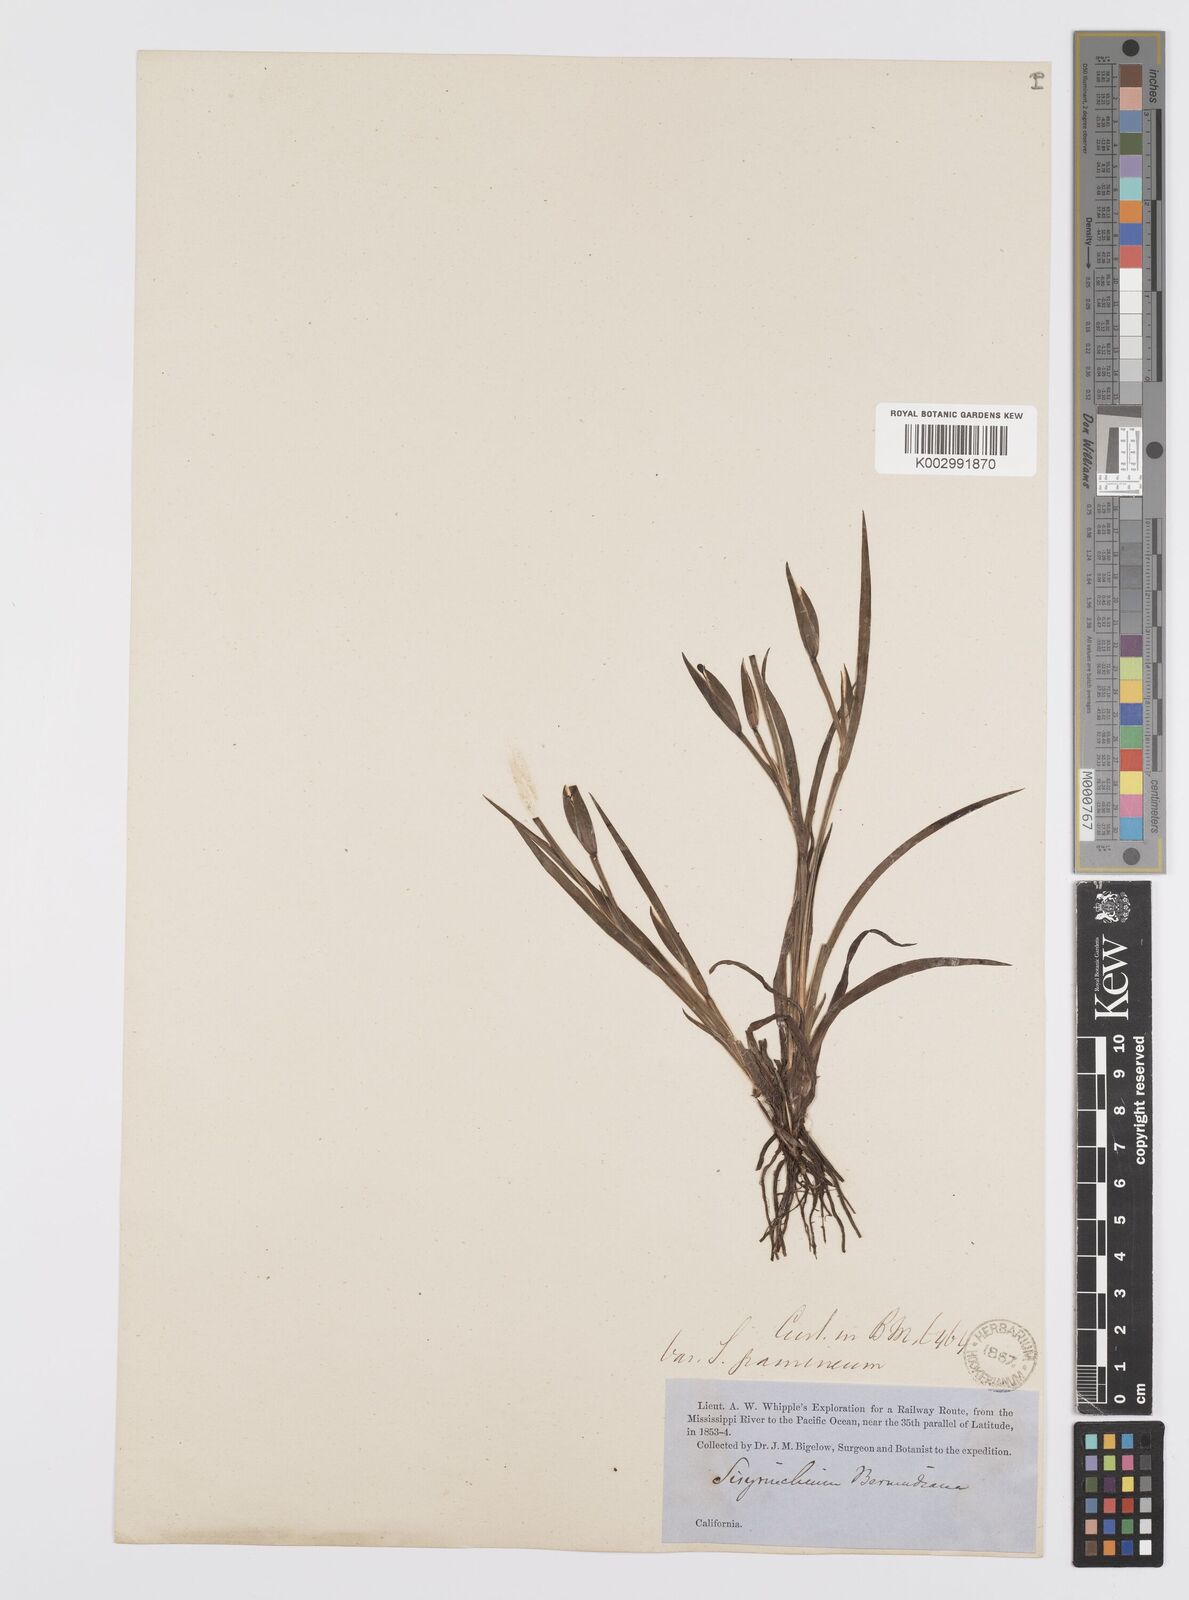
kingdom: Plantae
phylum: Tracheophyta
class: Liliopsida
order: Asparagales
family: Iridaceae
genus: Sisyrinchium
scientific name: Sisyrinchium
